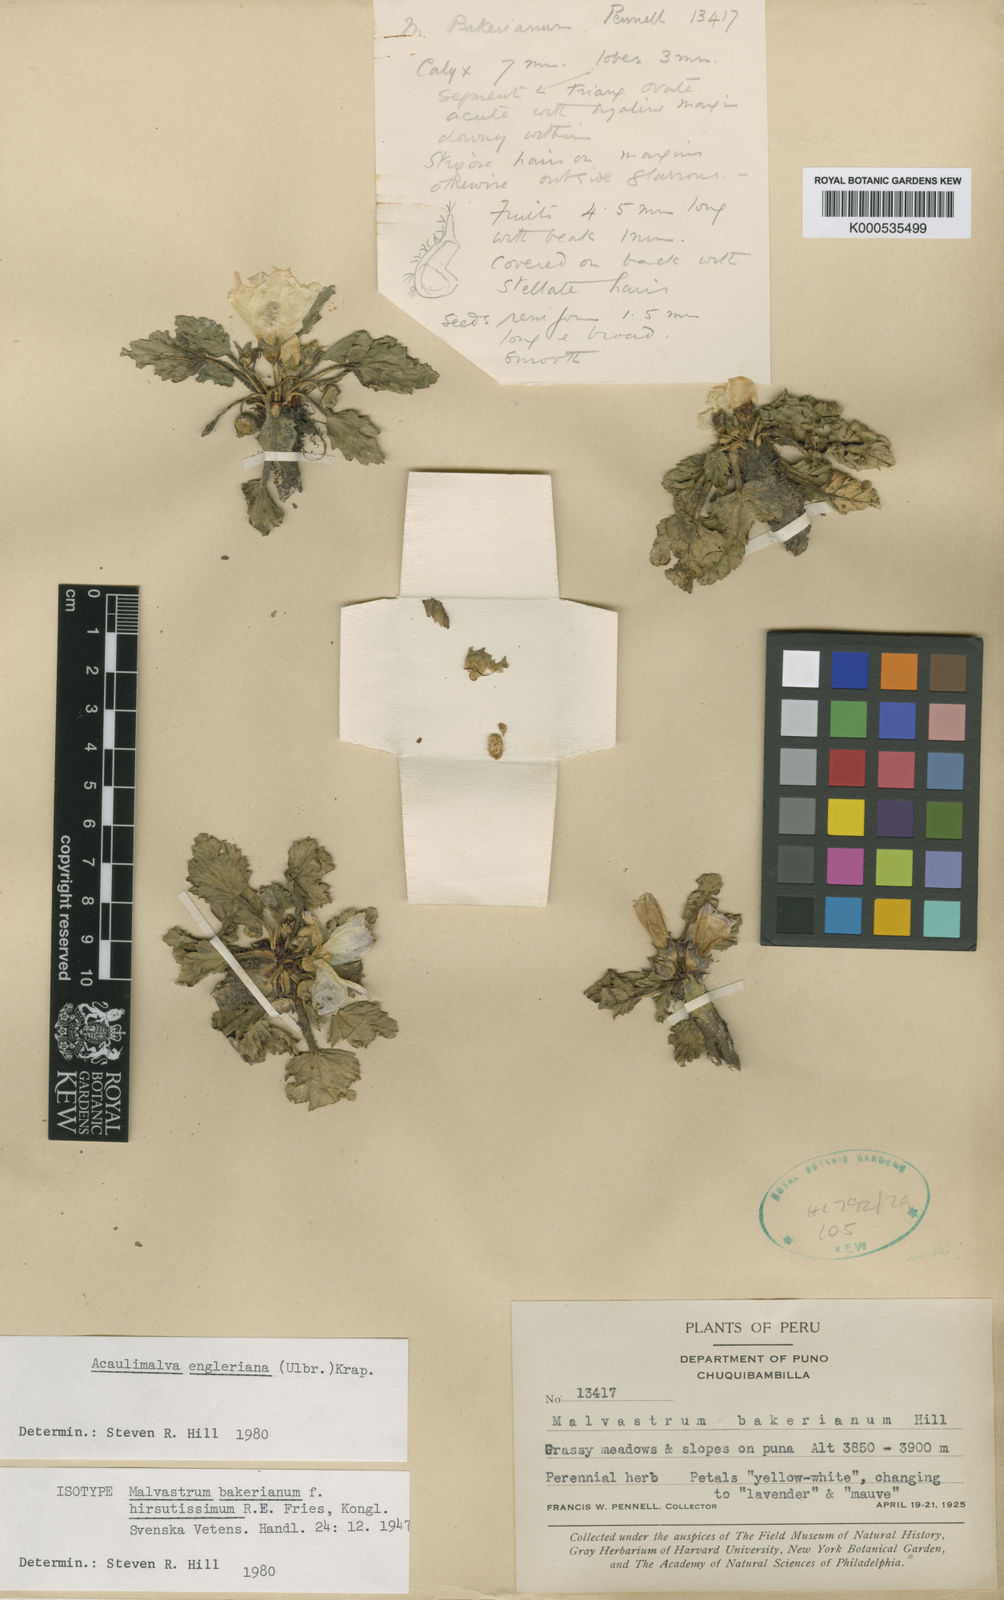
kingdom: Plantae
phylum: Tracheophyta
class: Magnoliopsida
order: Malvales
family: Malvaceae
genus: Acaulimalva
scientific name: Acaulimalva engleriana
